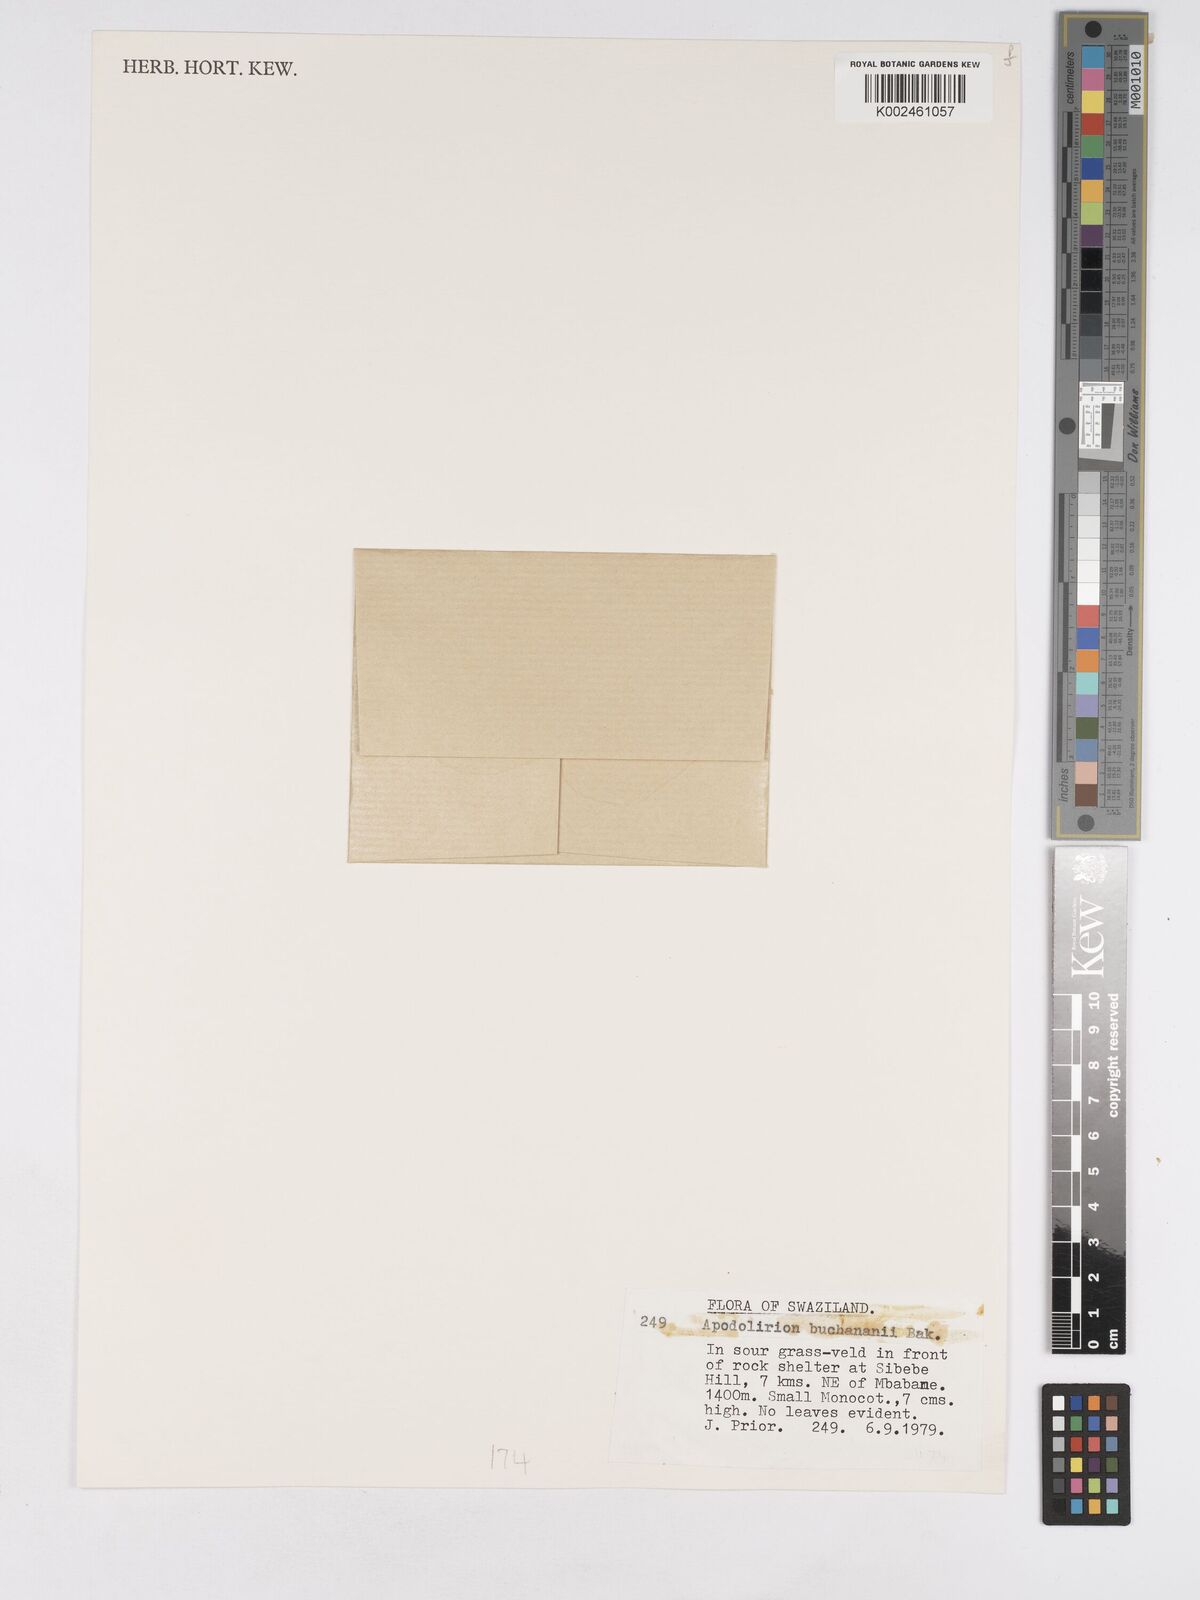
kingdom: Plantae
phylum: Tracheophyta
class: Liliopsida
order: Asparagales
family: Amaryllidaceae
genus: Apodolirion
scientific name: Apodolirion buchananii
